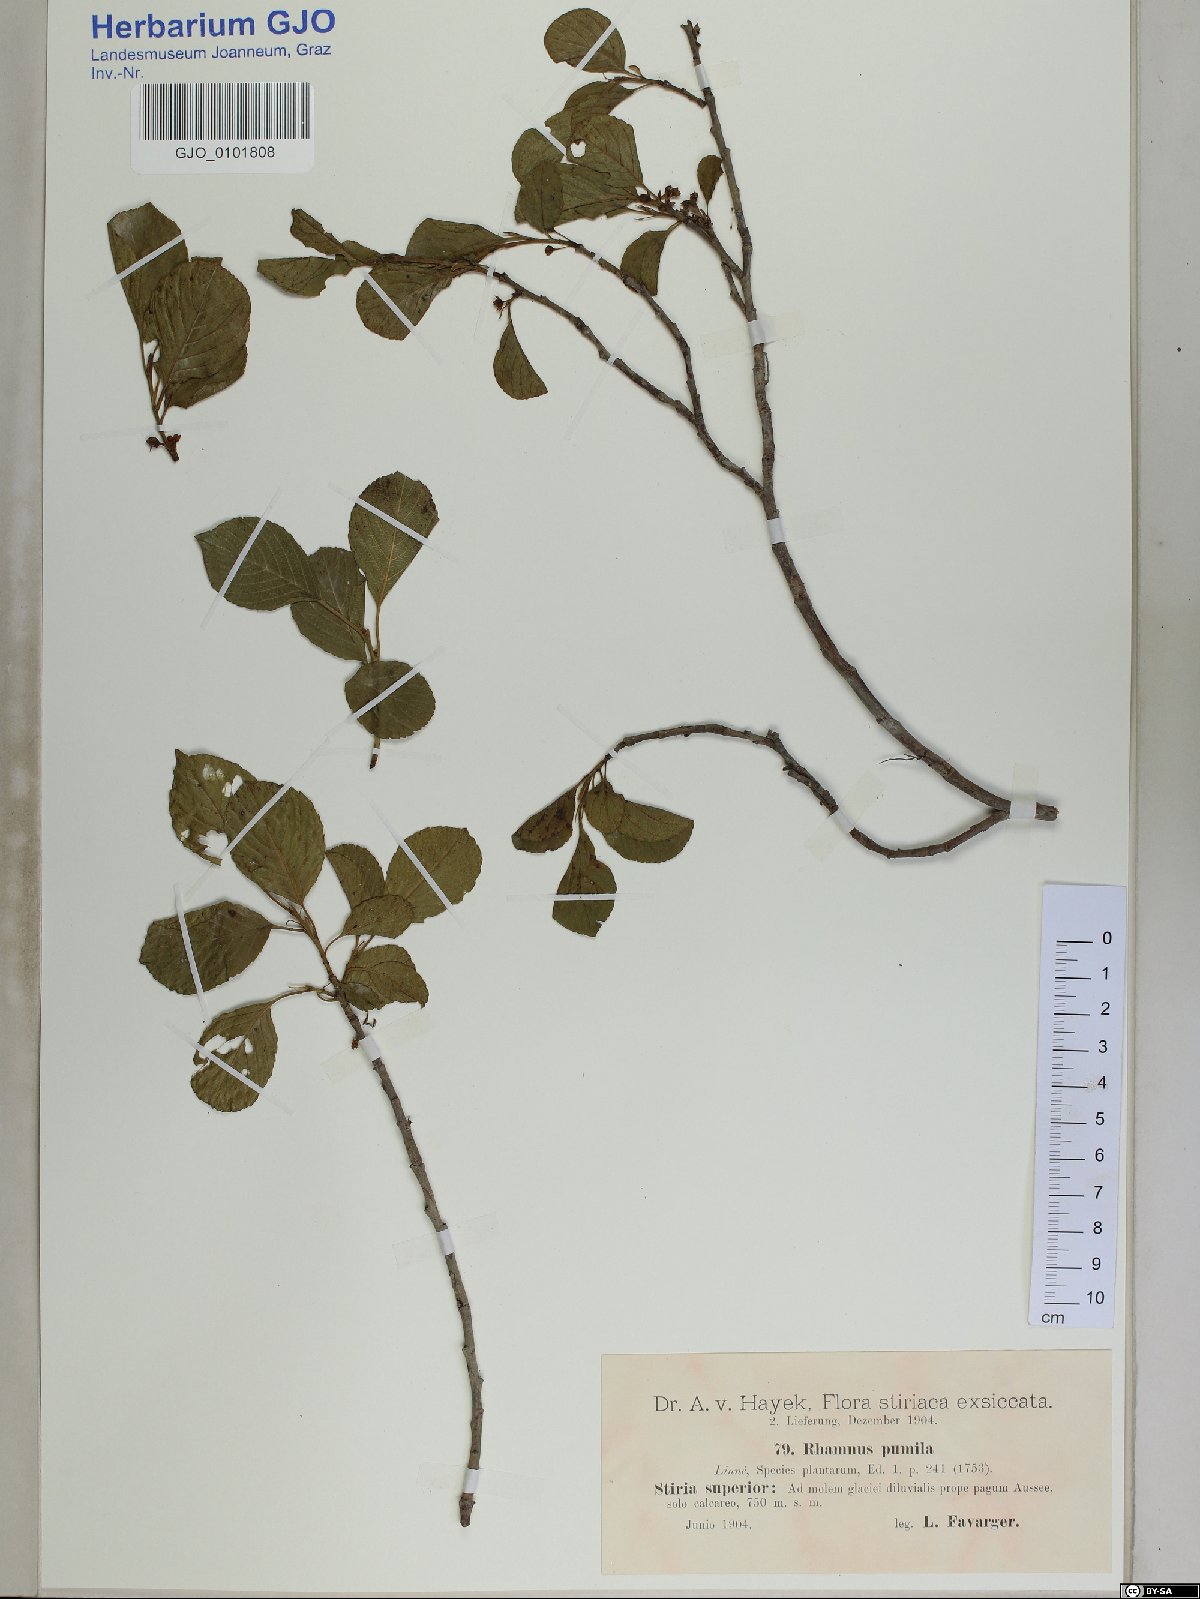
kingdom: Plantae
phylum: Tracheophyta
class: Magnoliopsida
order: Rosales
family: Rhamnaceae
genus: Atadinus
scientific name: Atadinus pumilus
